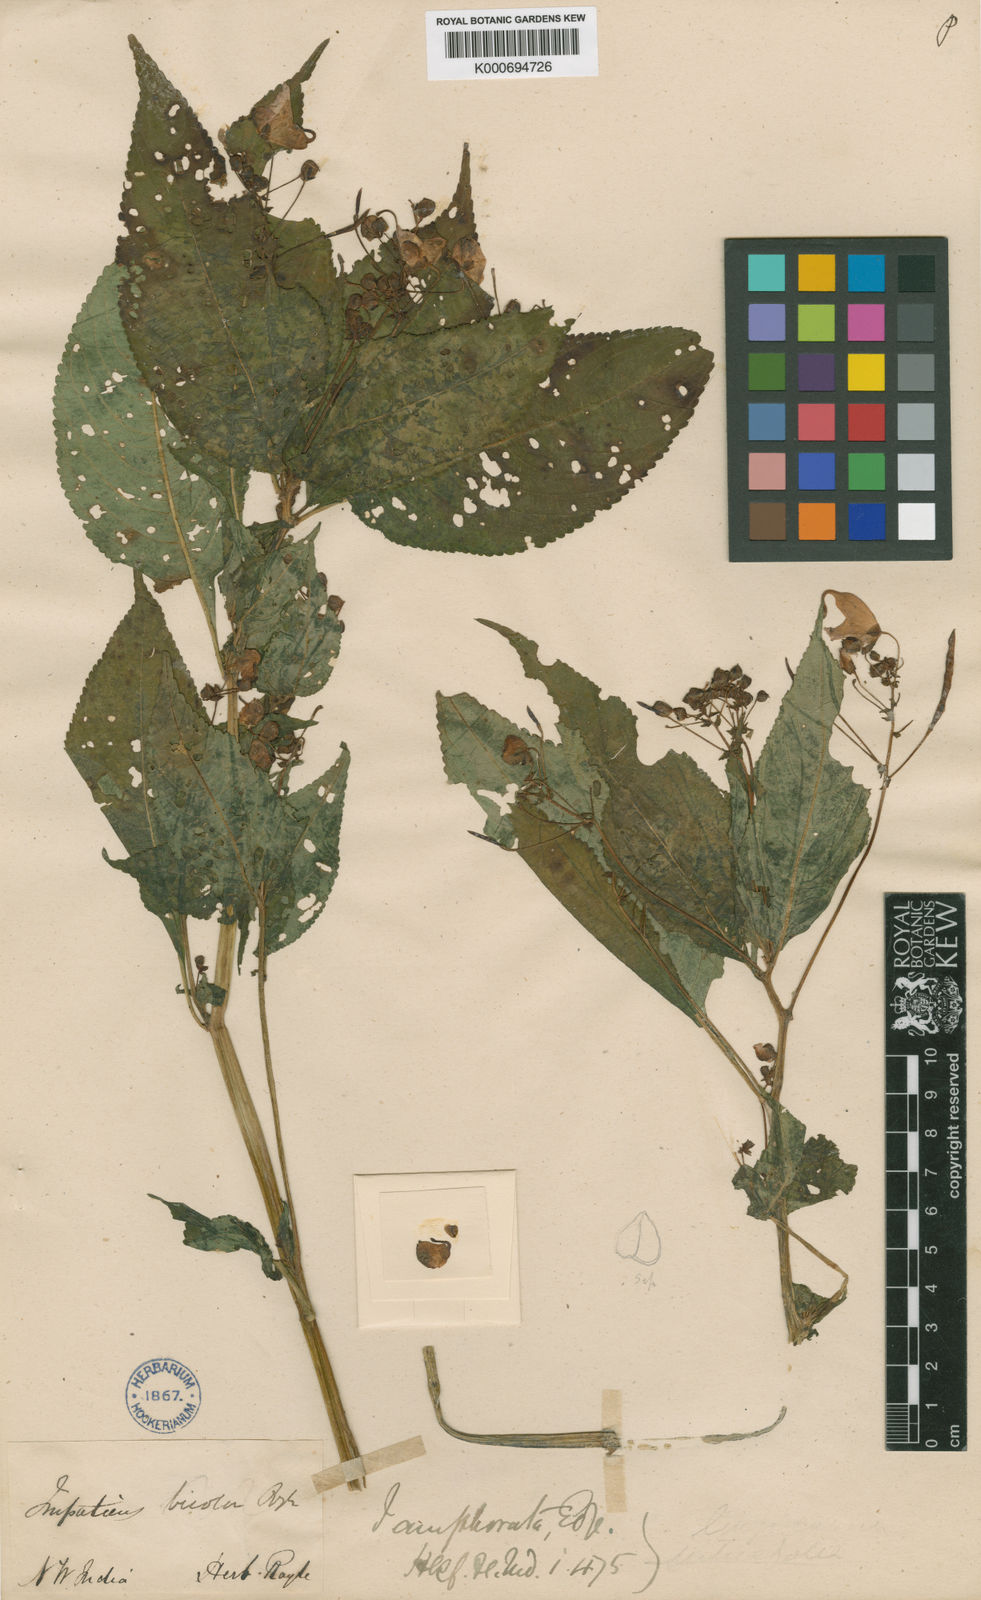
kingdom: Plantae
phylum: Tracheophyta
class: Magnoliopsida
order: Ericales
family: Balsaminaceae
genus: Impatiens
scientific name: Impatiens bicolor
